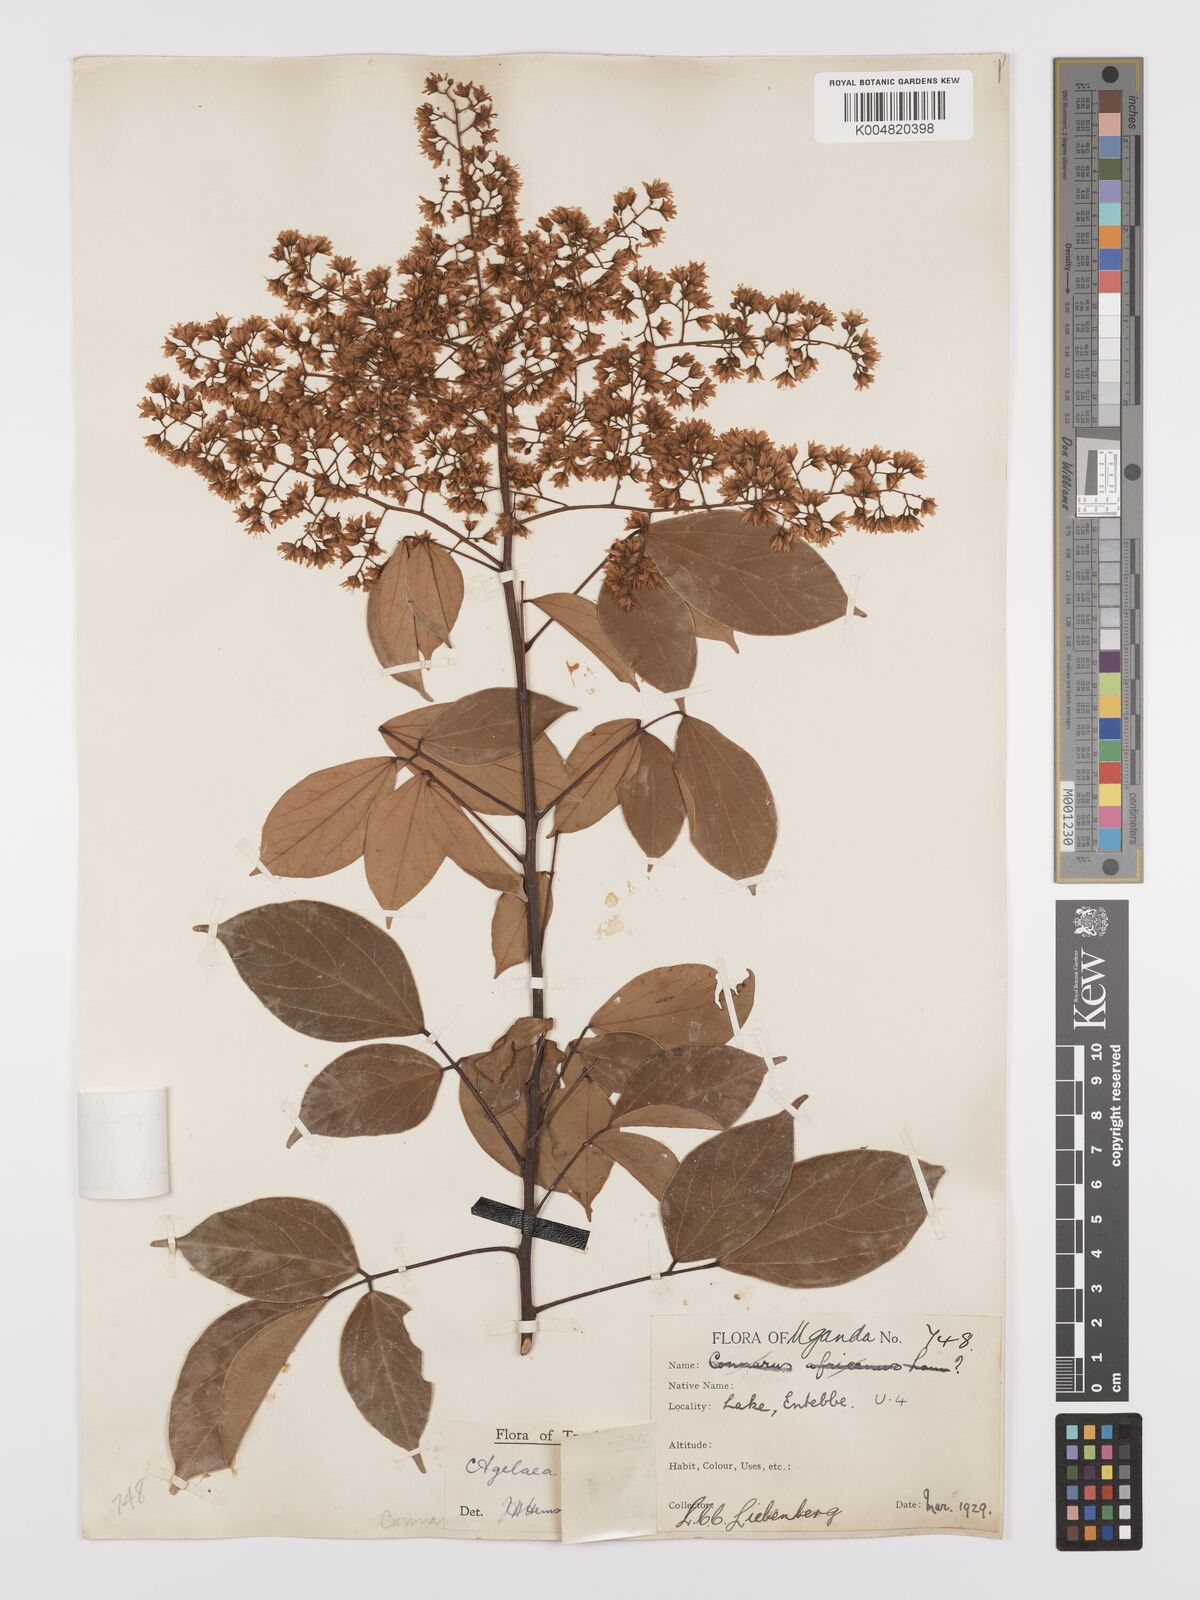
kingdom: Plantae
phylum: Tracheophyta
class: Magnoliopsida
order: Oxalidales
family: Connaraceae
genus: Agelaea
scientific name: Agelaea pentagyna
